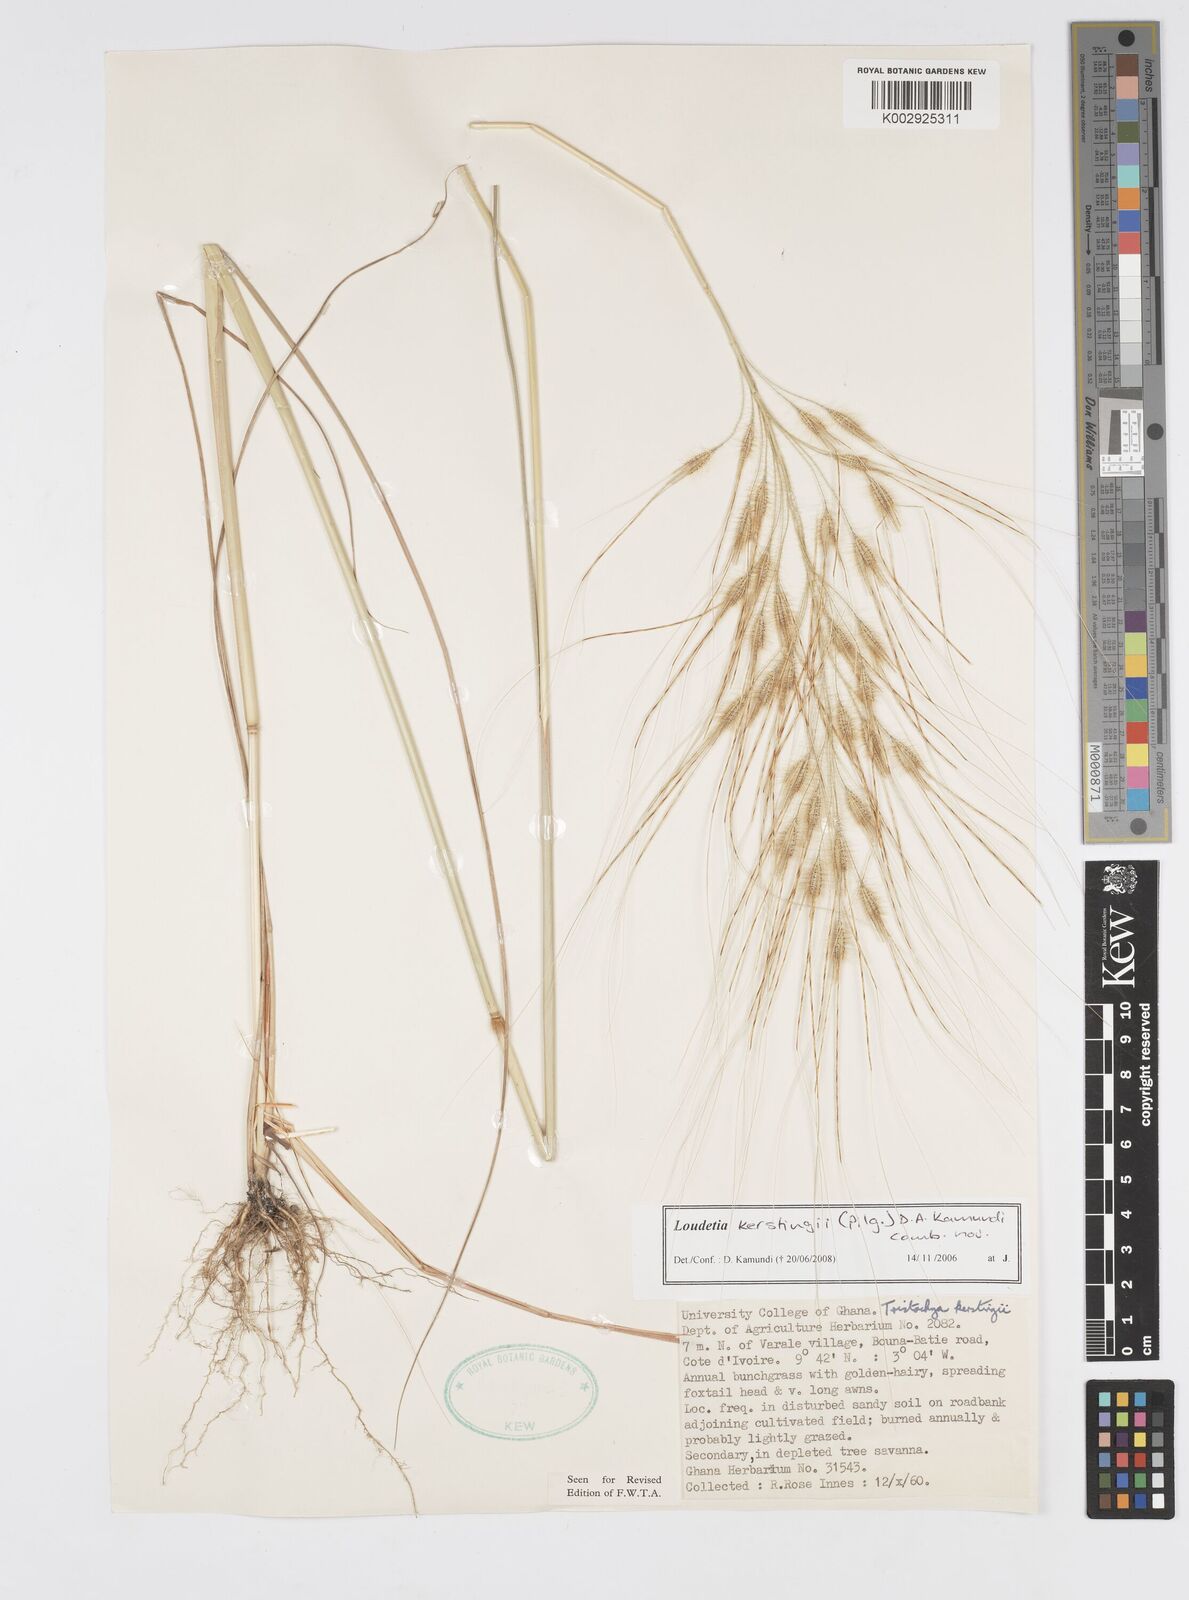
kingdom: Plantae
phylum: Tracheophyta
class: Liliopsida
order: Poales
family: Poaceae
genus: Loudetiopsis
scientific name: Loudetiopsis kerstingii
